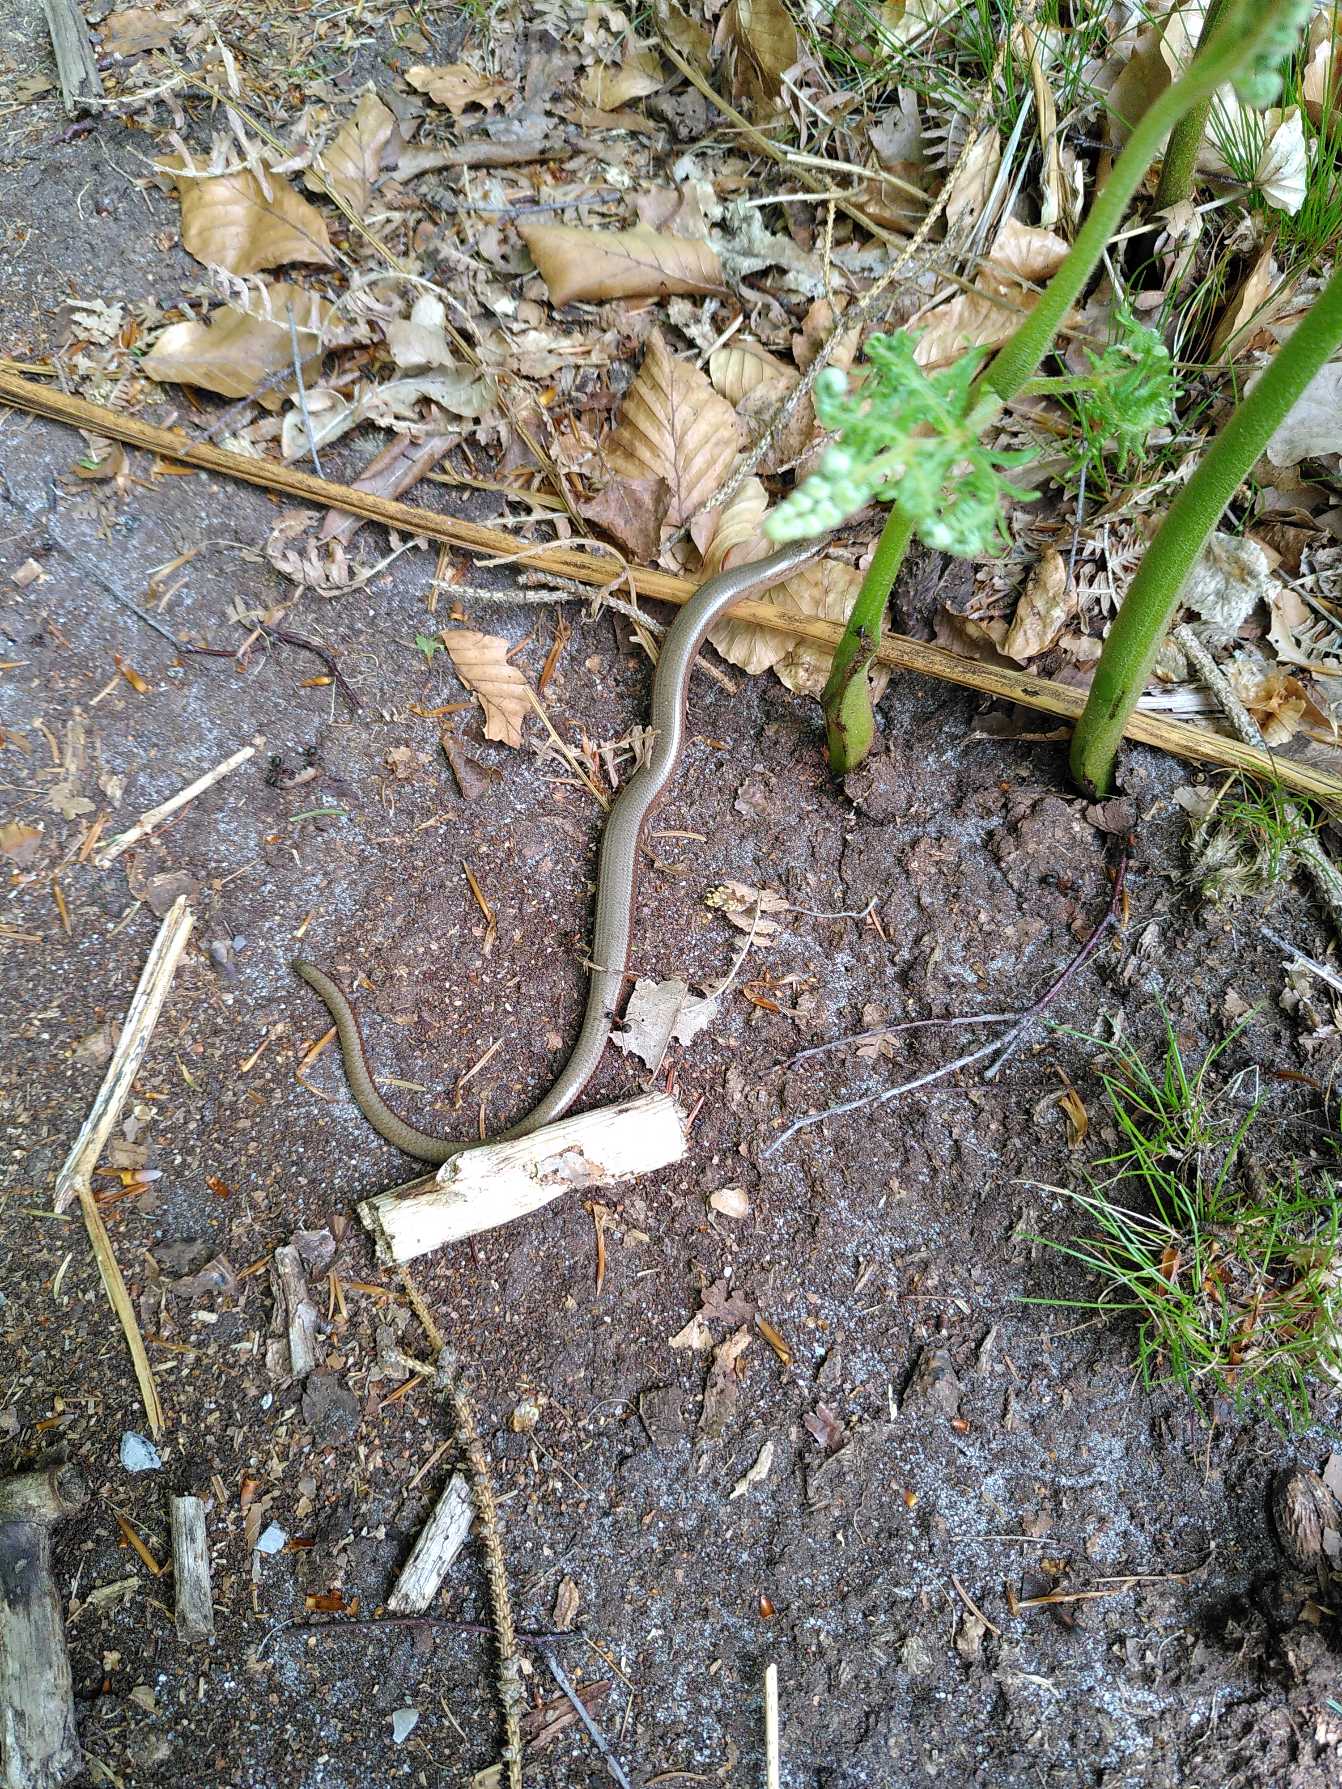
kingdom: Animalia
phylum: Chordata
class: Squamata
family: Anguidae
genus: Anguis
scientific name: Anguis fragilis
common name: Stålorm
